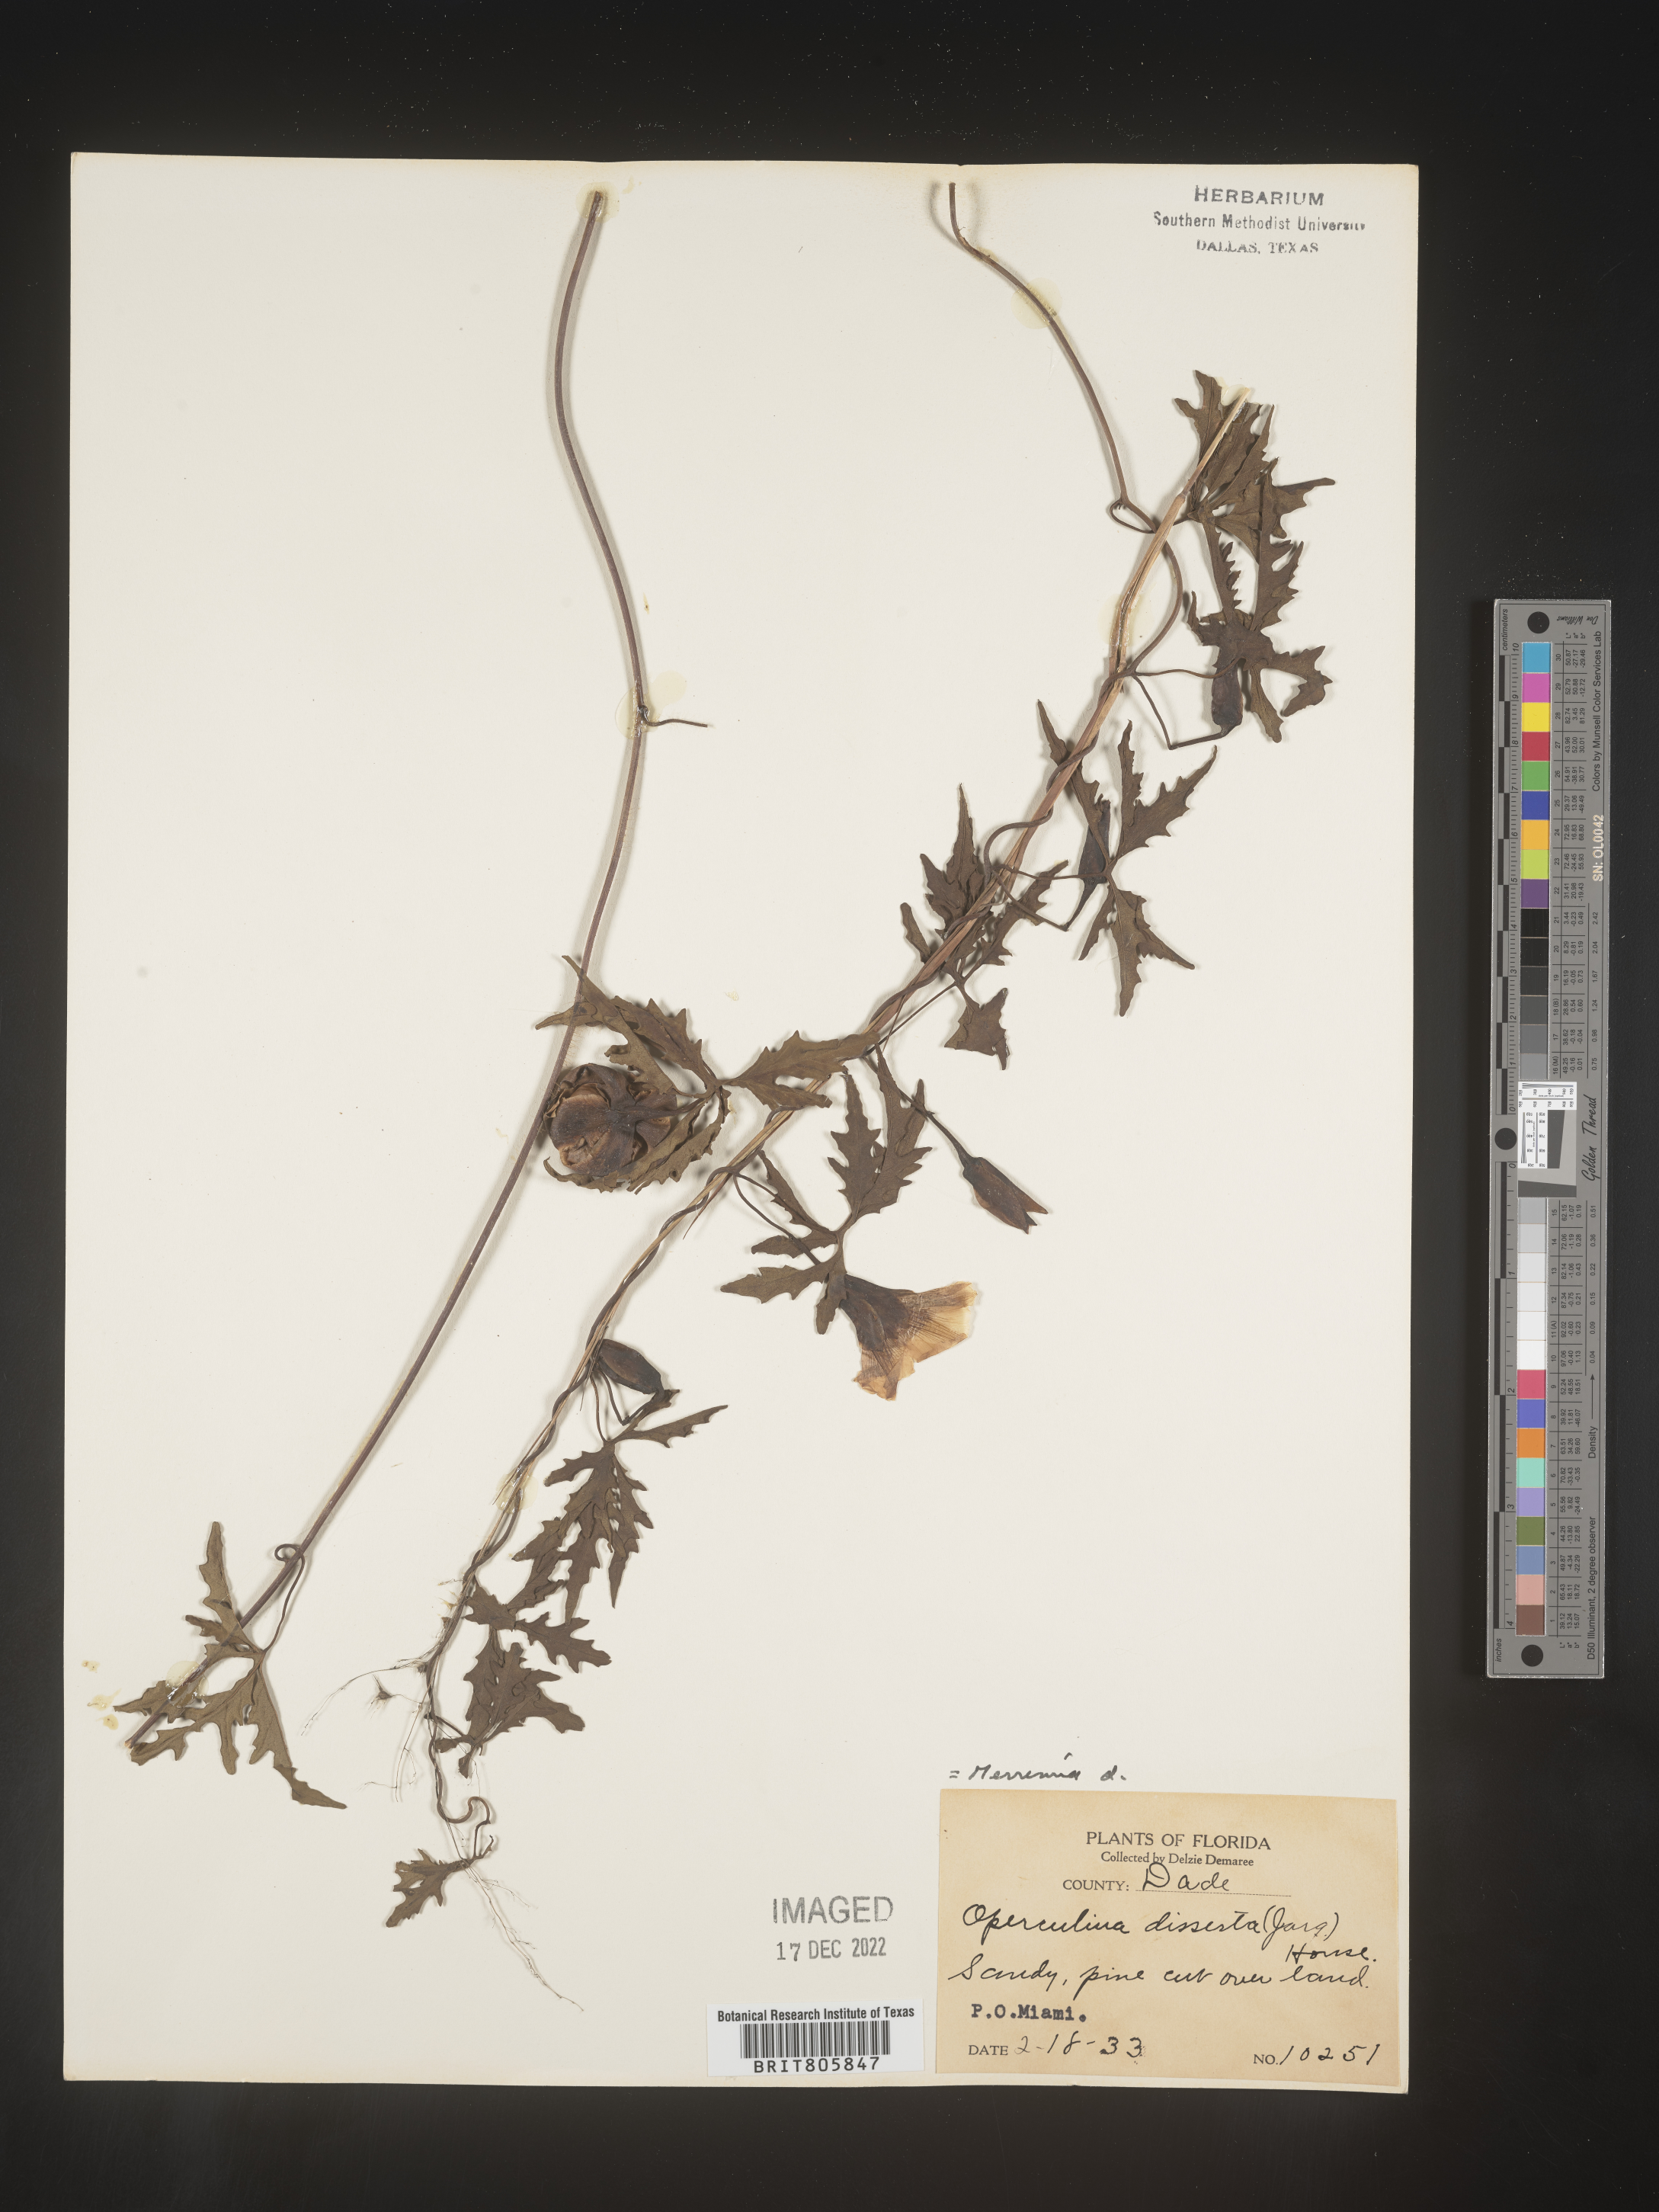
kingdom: Plantae
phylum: Tracheophyta
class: Magnoliopsida
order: Solanales
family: Convolvulaceae
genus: Merremia
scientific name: Merremia
